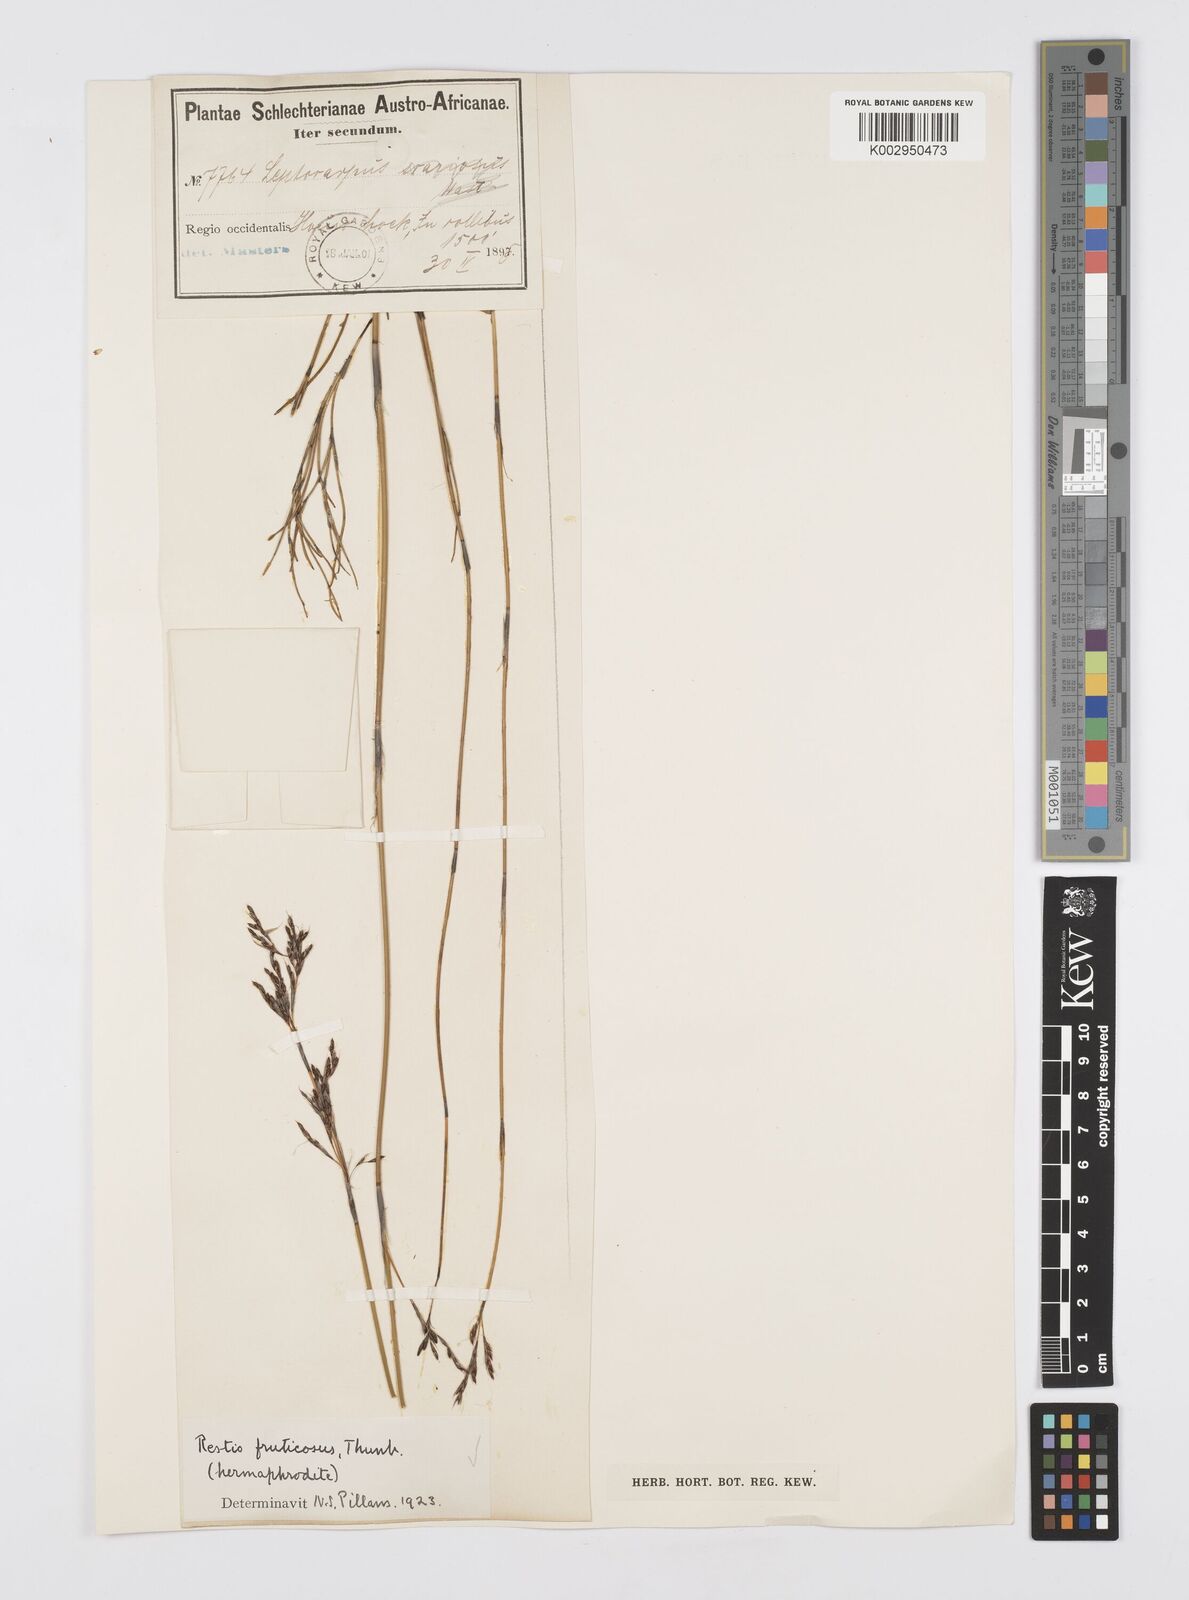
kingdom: Plantae
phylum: Tracheophyta
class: Liliopsida
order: Poales
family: Restionaceae
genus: Rhodocoma
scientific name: Rhodocoma fruticosa
